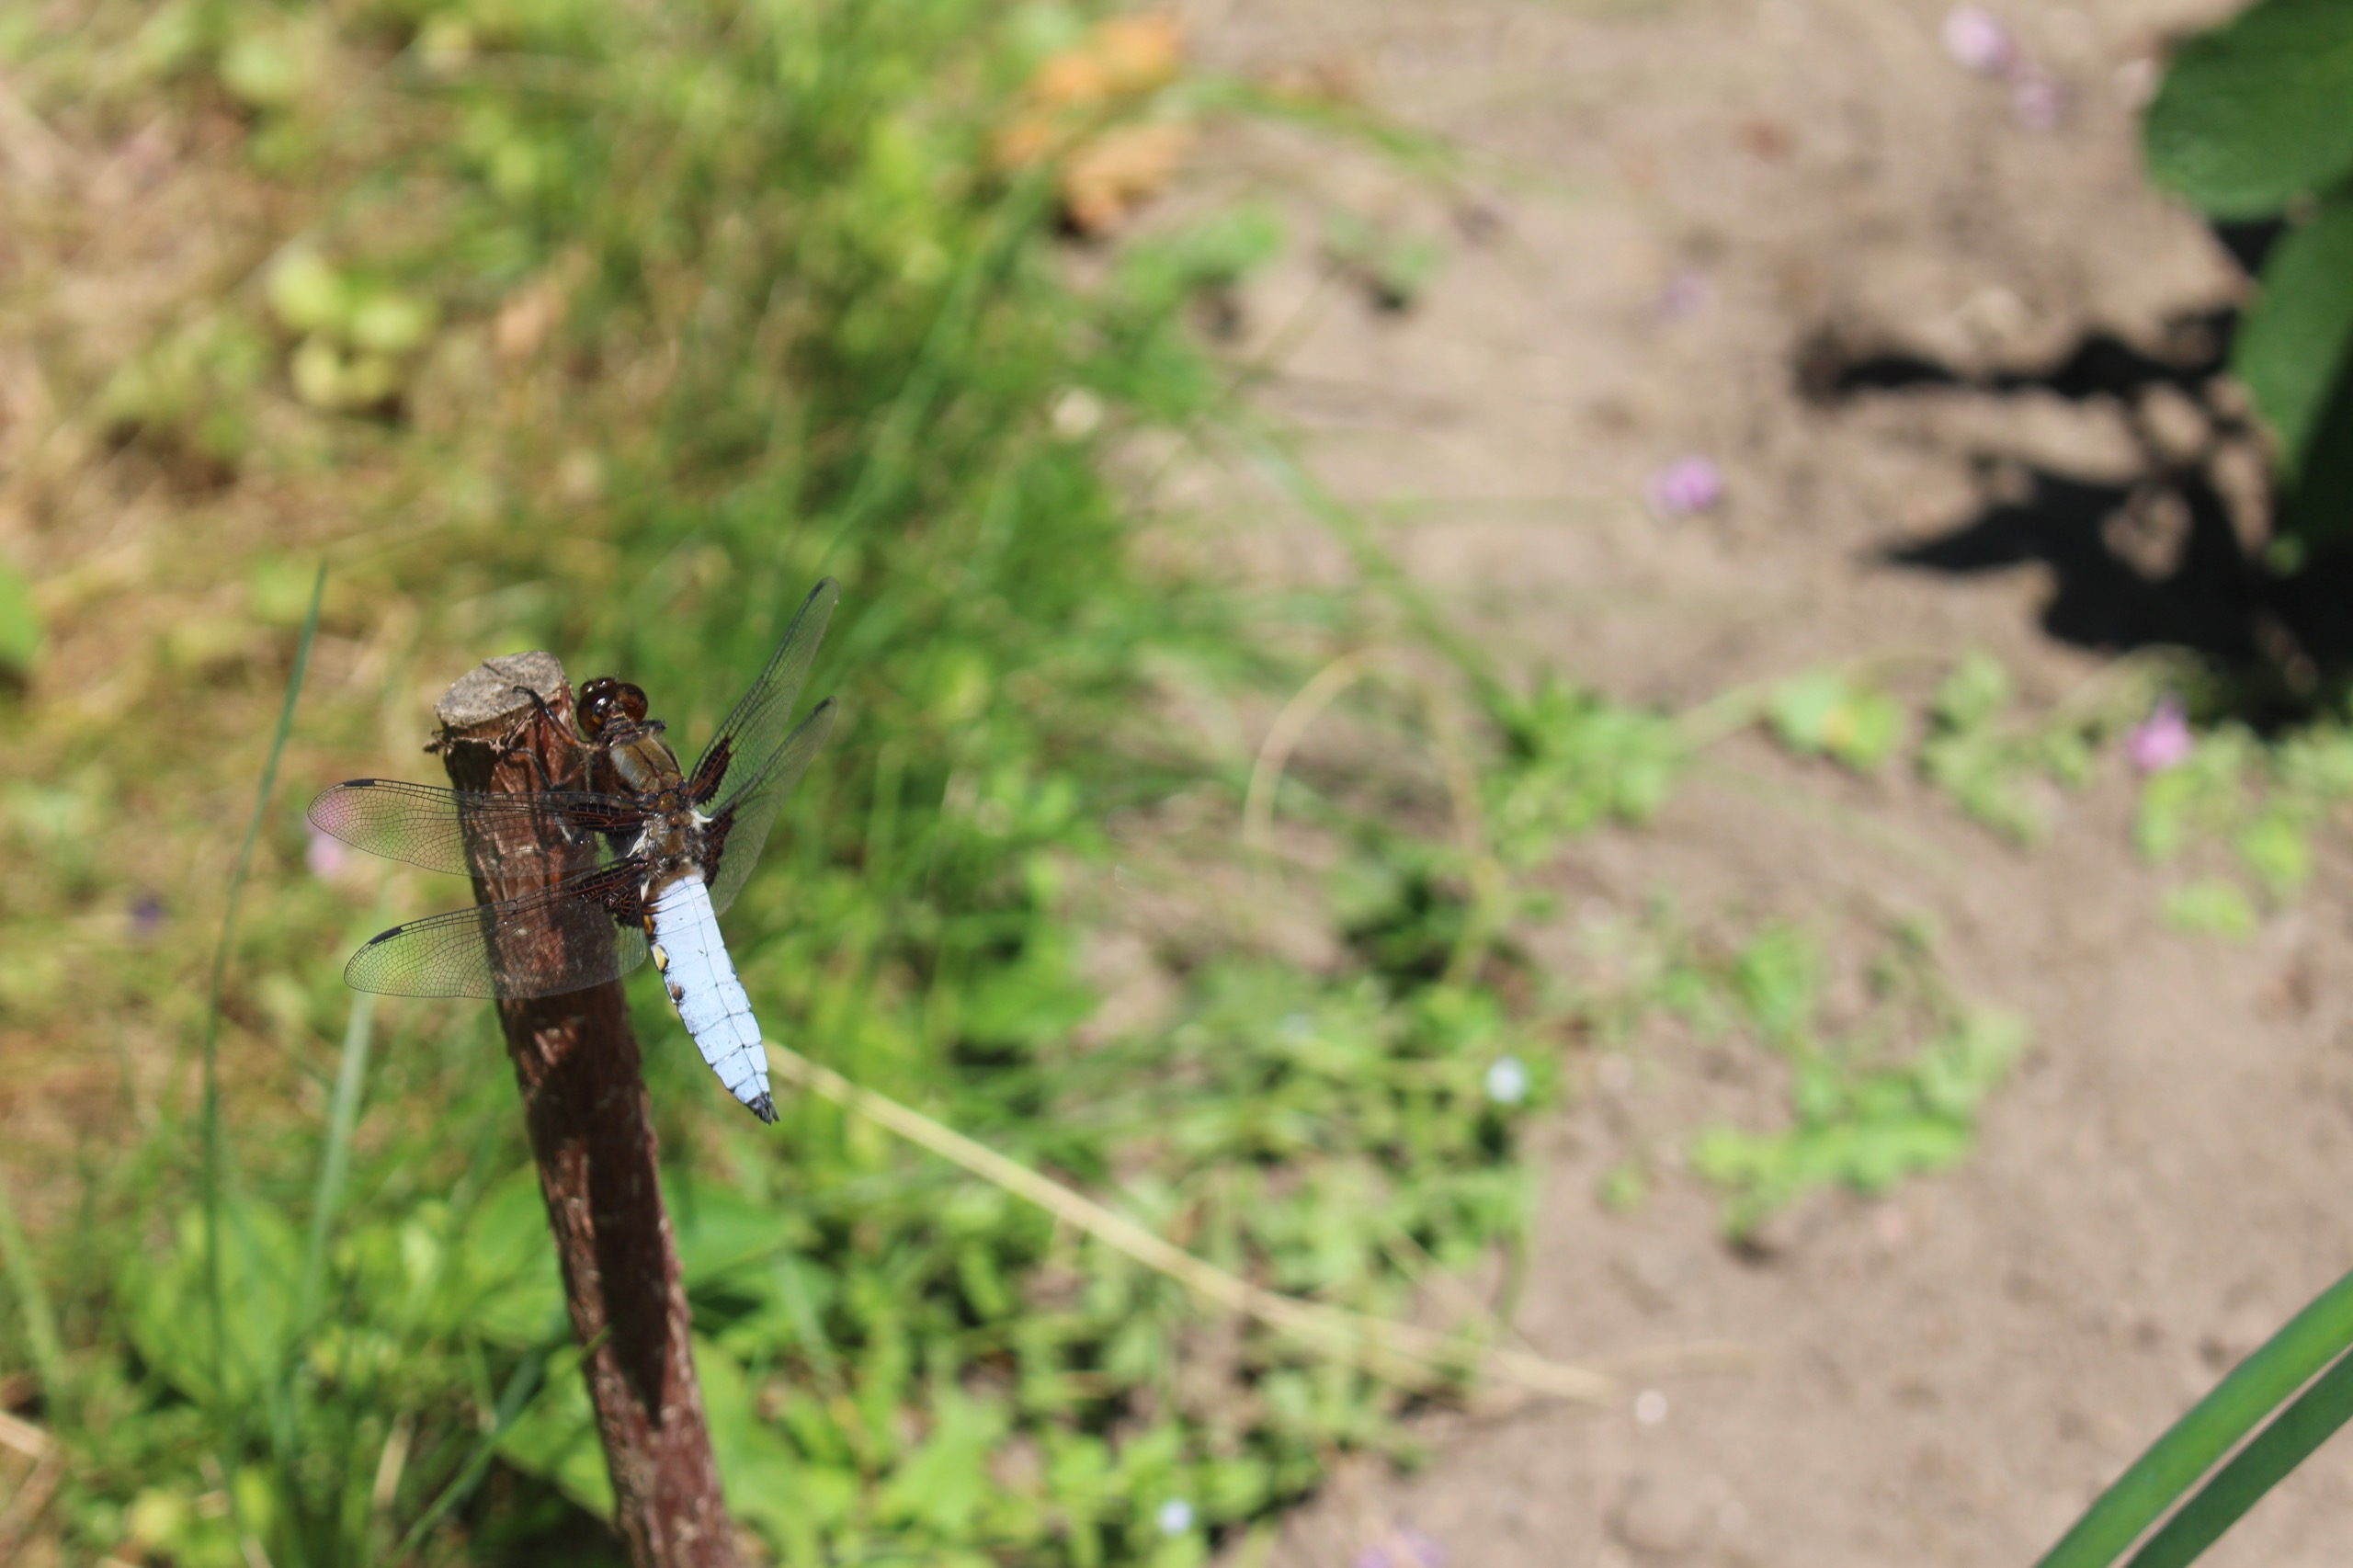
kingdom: Animalia
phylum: Arthropoda
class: Insecta
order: Odonata
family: Libellulidae
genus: Libellula
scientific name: Libellula depressa
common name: Blå libel
